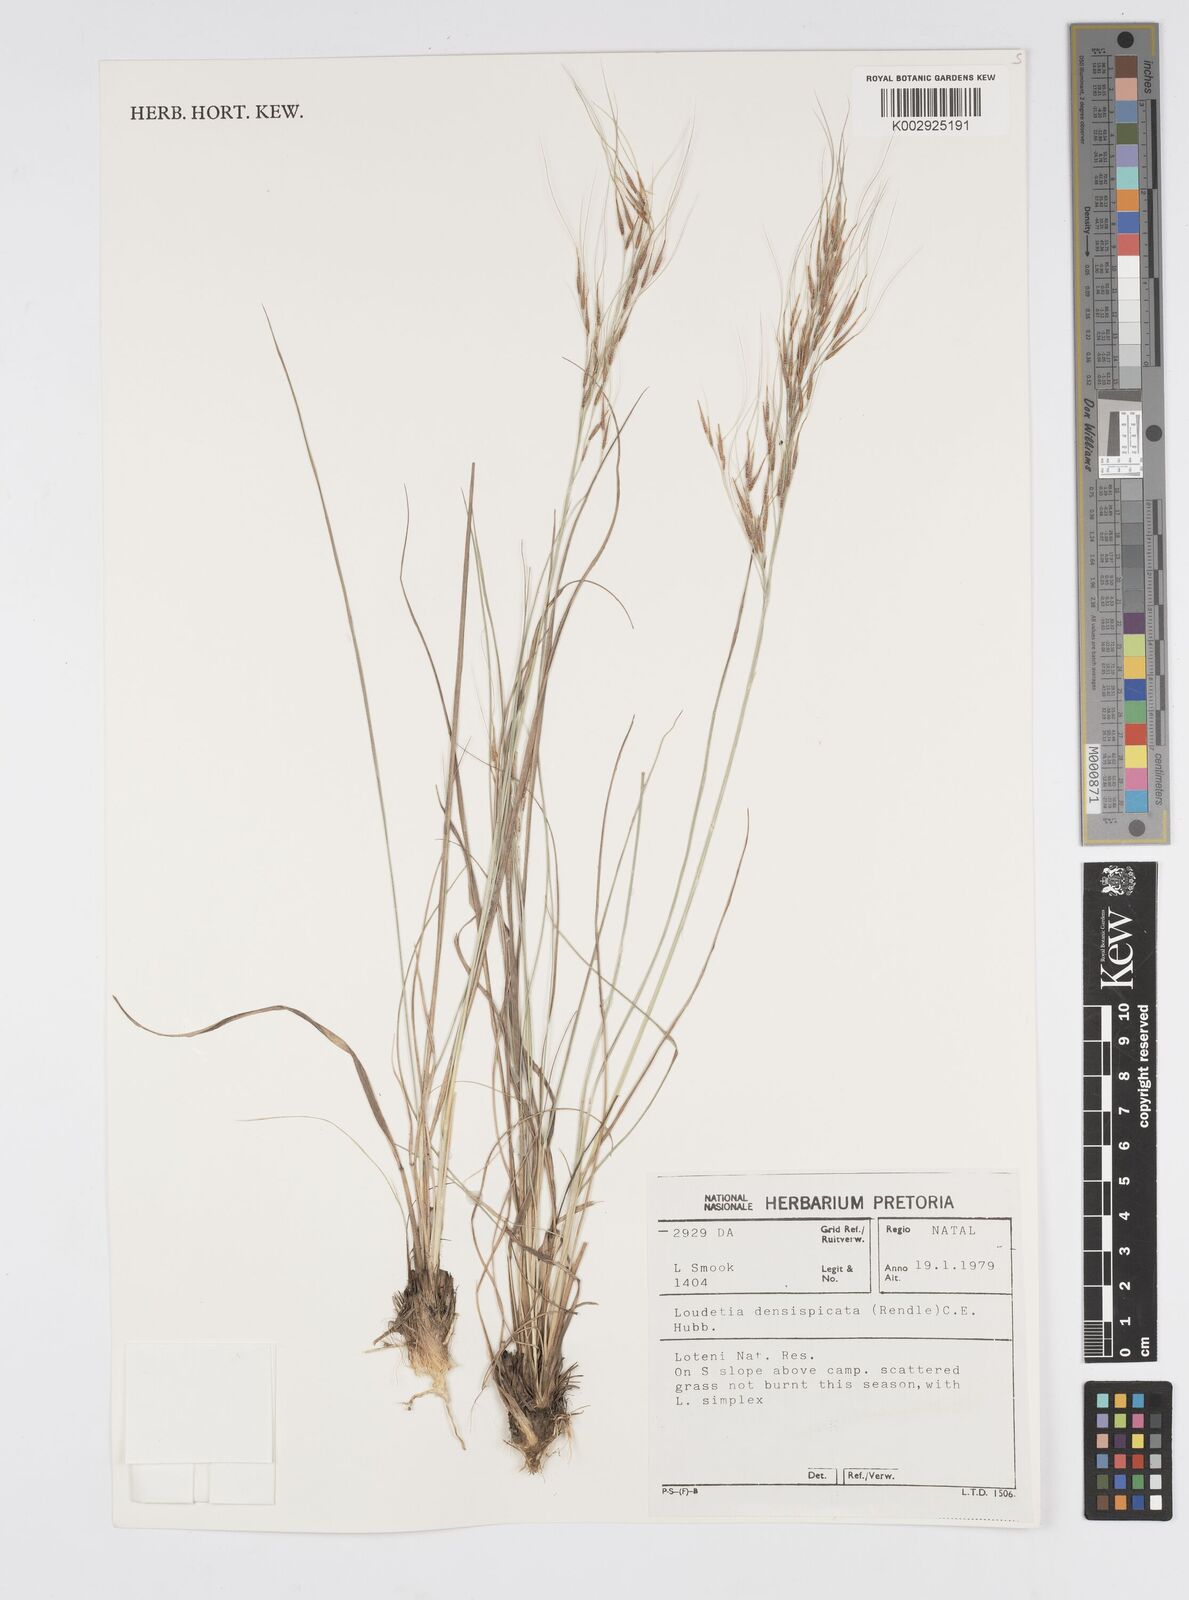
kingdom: Plantae
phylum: Tracheophyta
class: Liliopsida
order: Poales
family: Poaceae
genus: Loudetia
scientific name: Loudetia simplex
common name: Common russet grass
